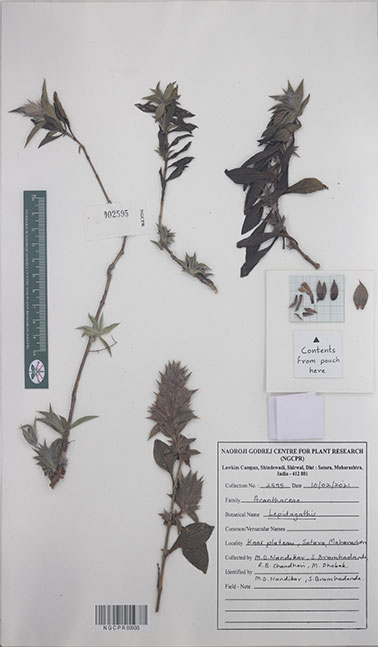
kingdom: Plantae
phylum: Tracheophyta
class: Magnoliopsida
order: Lamiales
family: Acanthaceae
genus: Lepidagathis
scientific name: Lepidagathis
